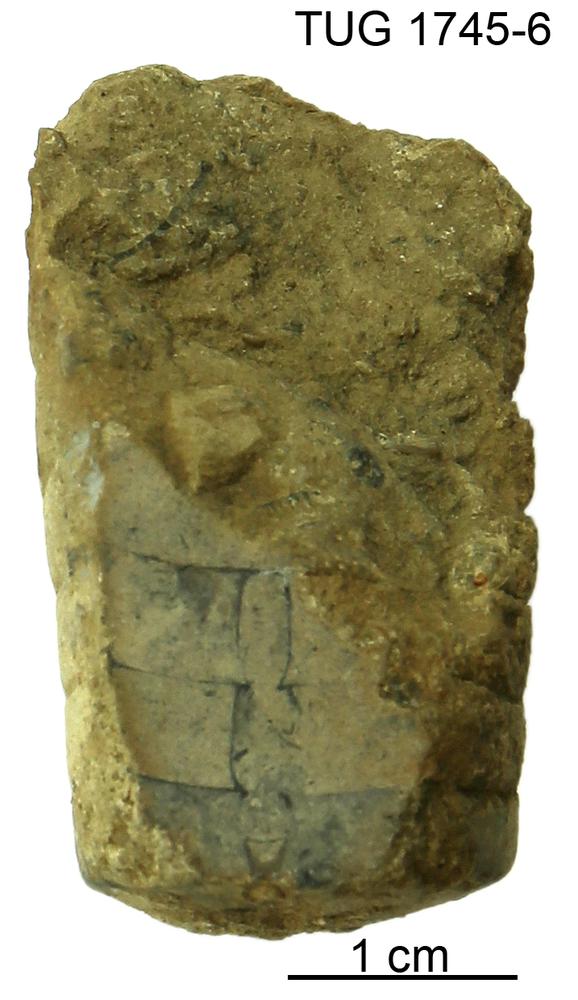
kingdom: Animalia
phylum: Mollusca
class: Cephalopoda
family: Oncoceratidae
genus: Beloitoceras
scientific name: Beloitoceras
